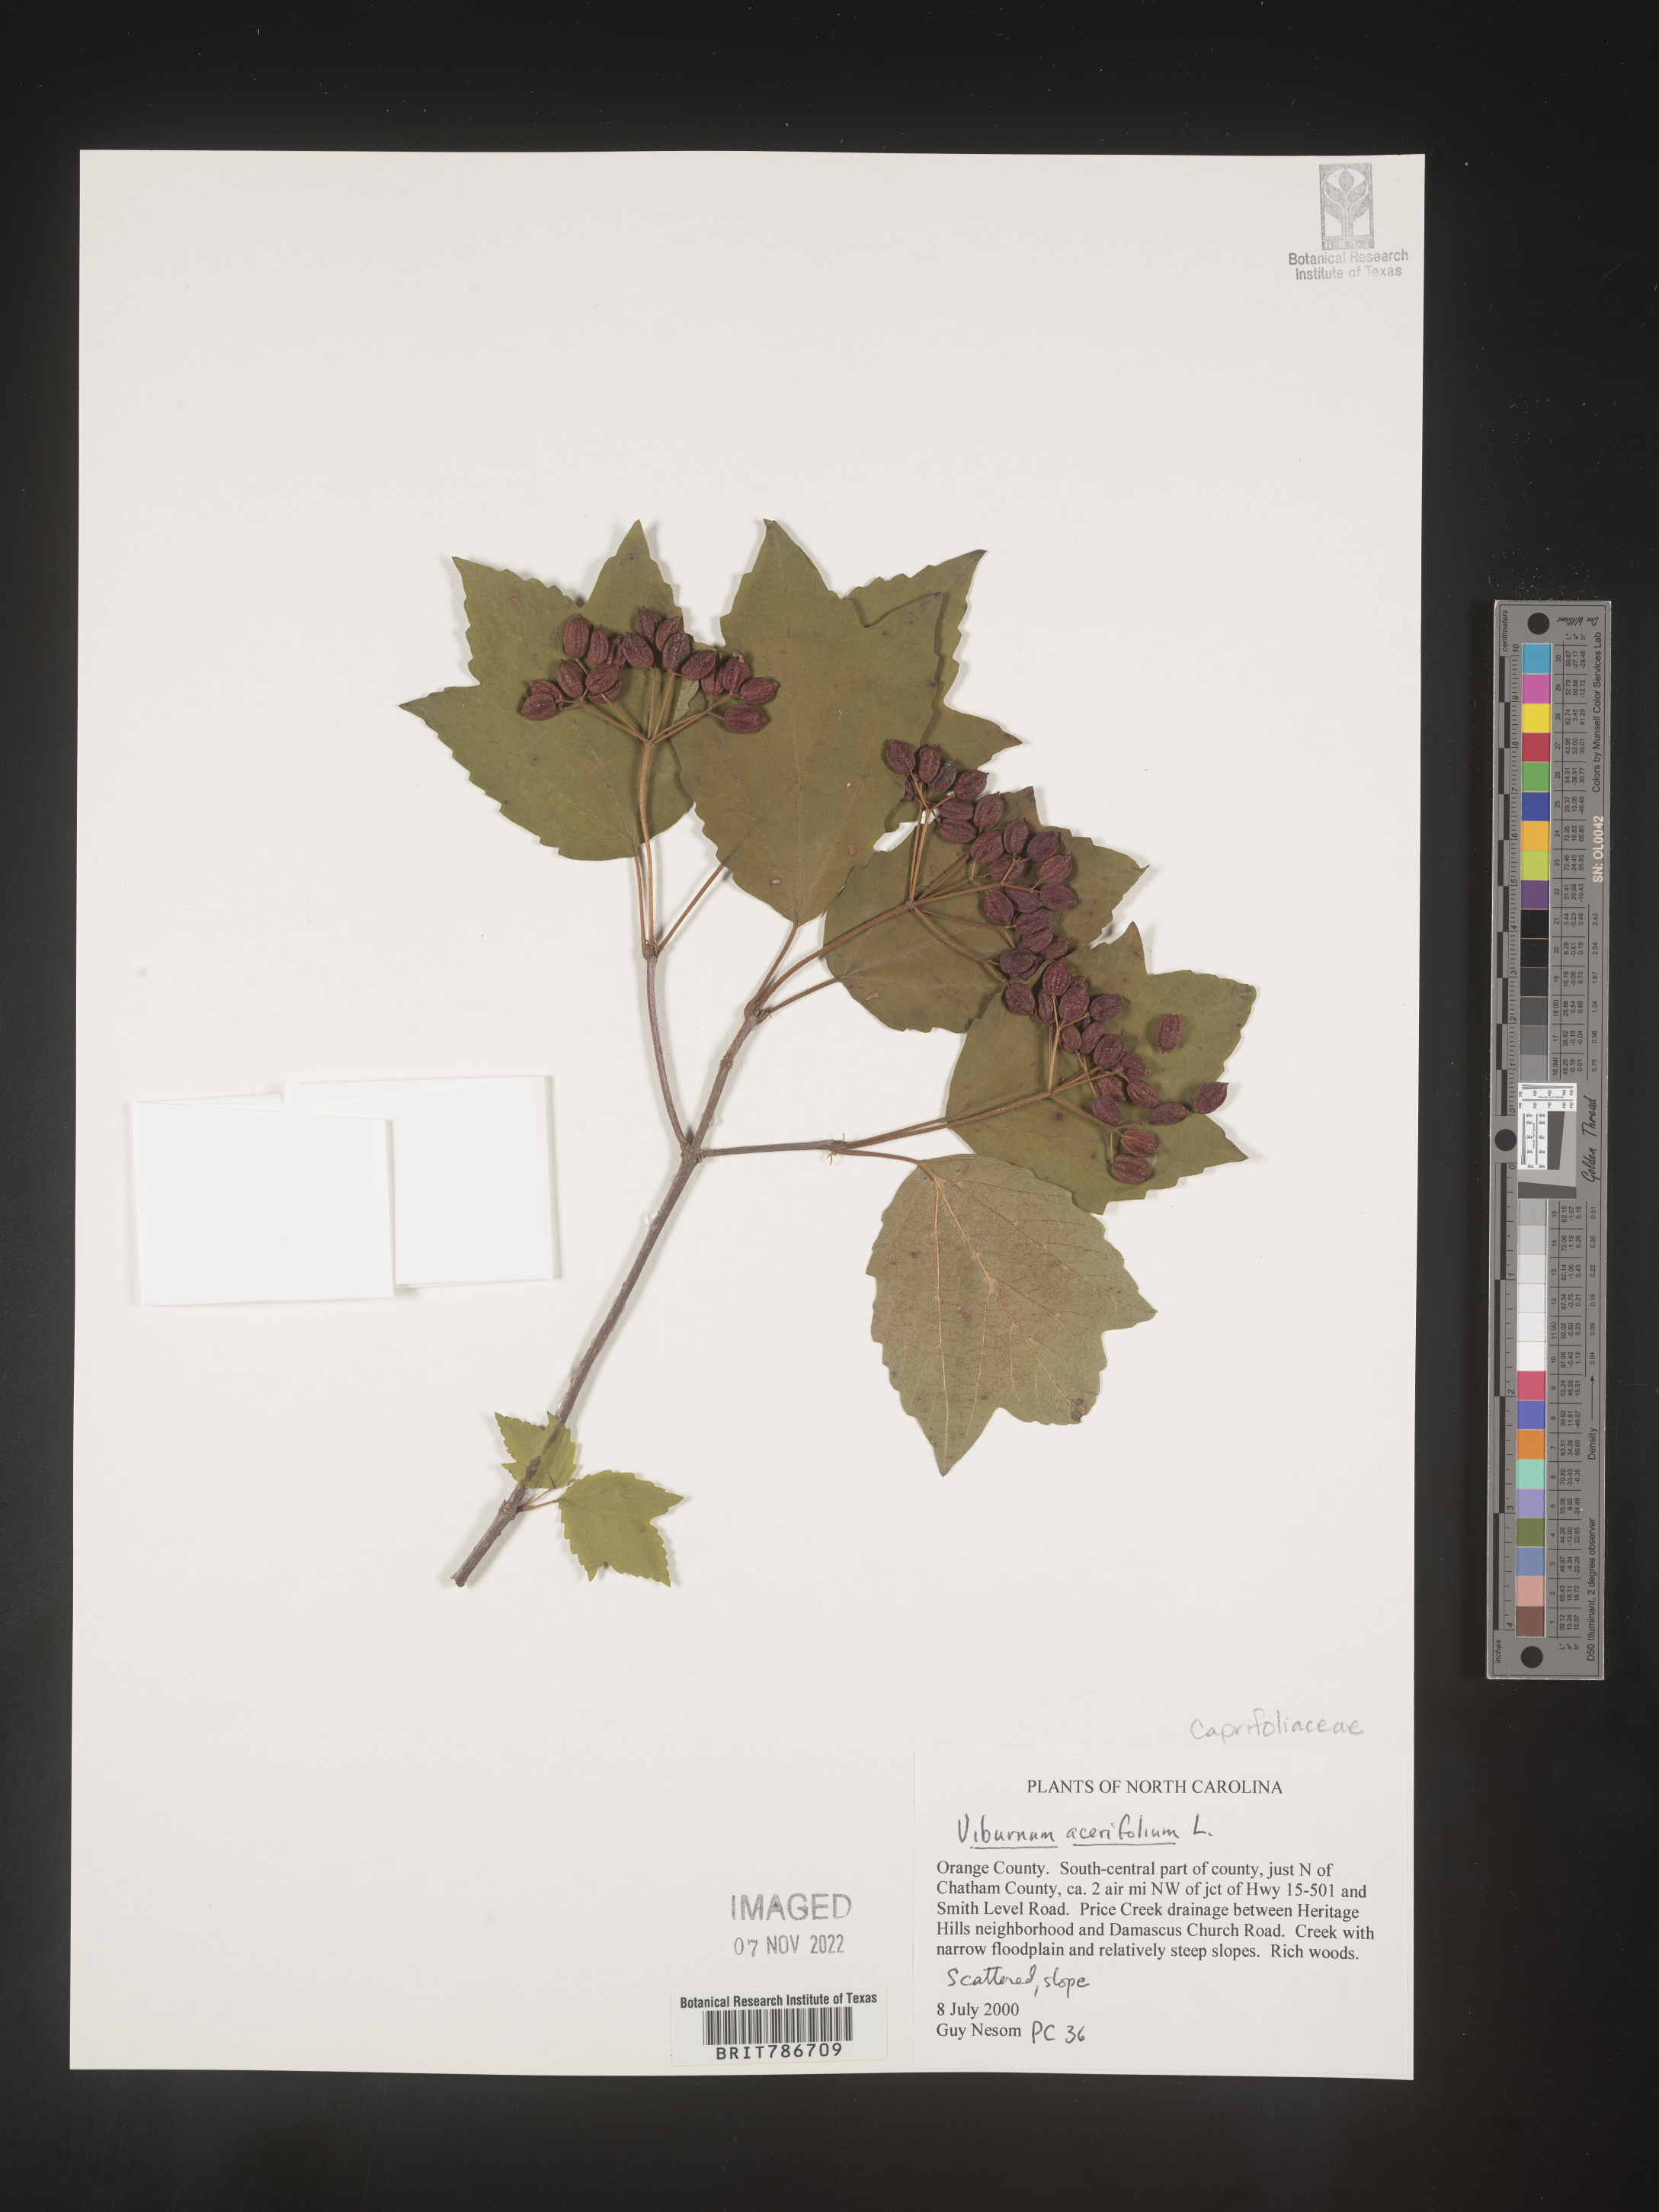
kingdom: Plantae
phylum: Tracheophyta
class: Magnoliopsida
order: Dipsacales
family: Viburnaceae
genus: Viburnum
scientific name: Viburnum acerifolium
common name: Dockmackie
